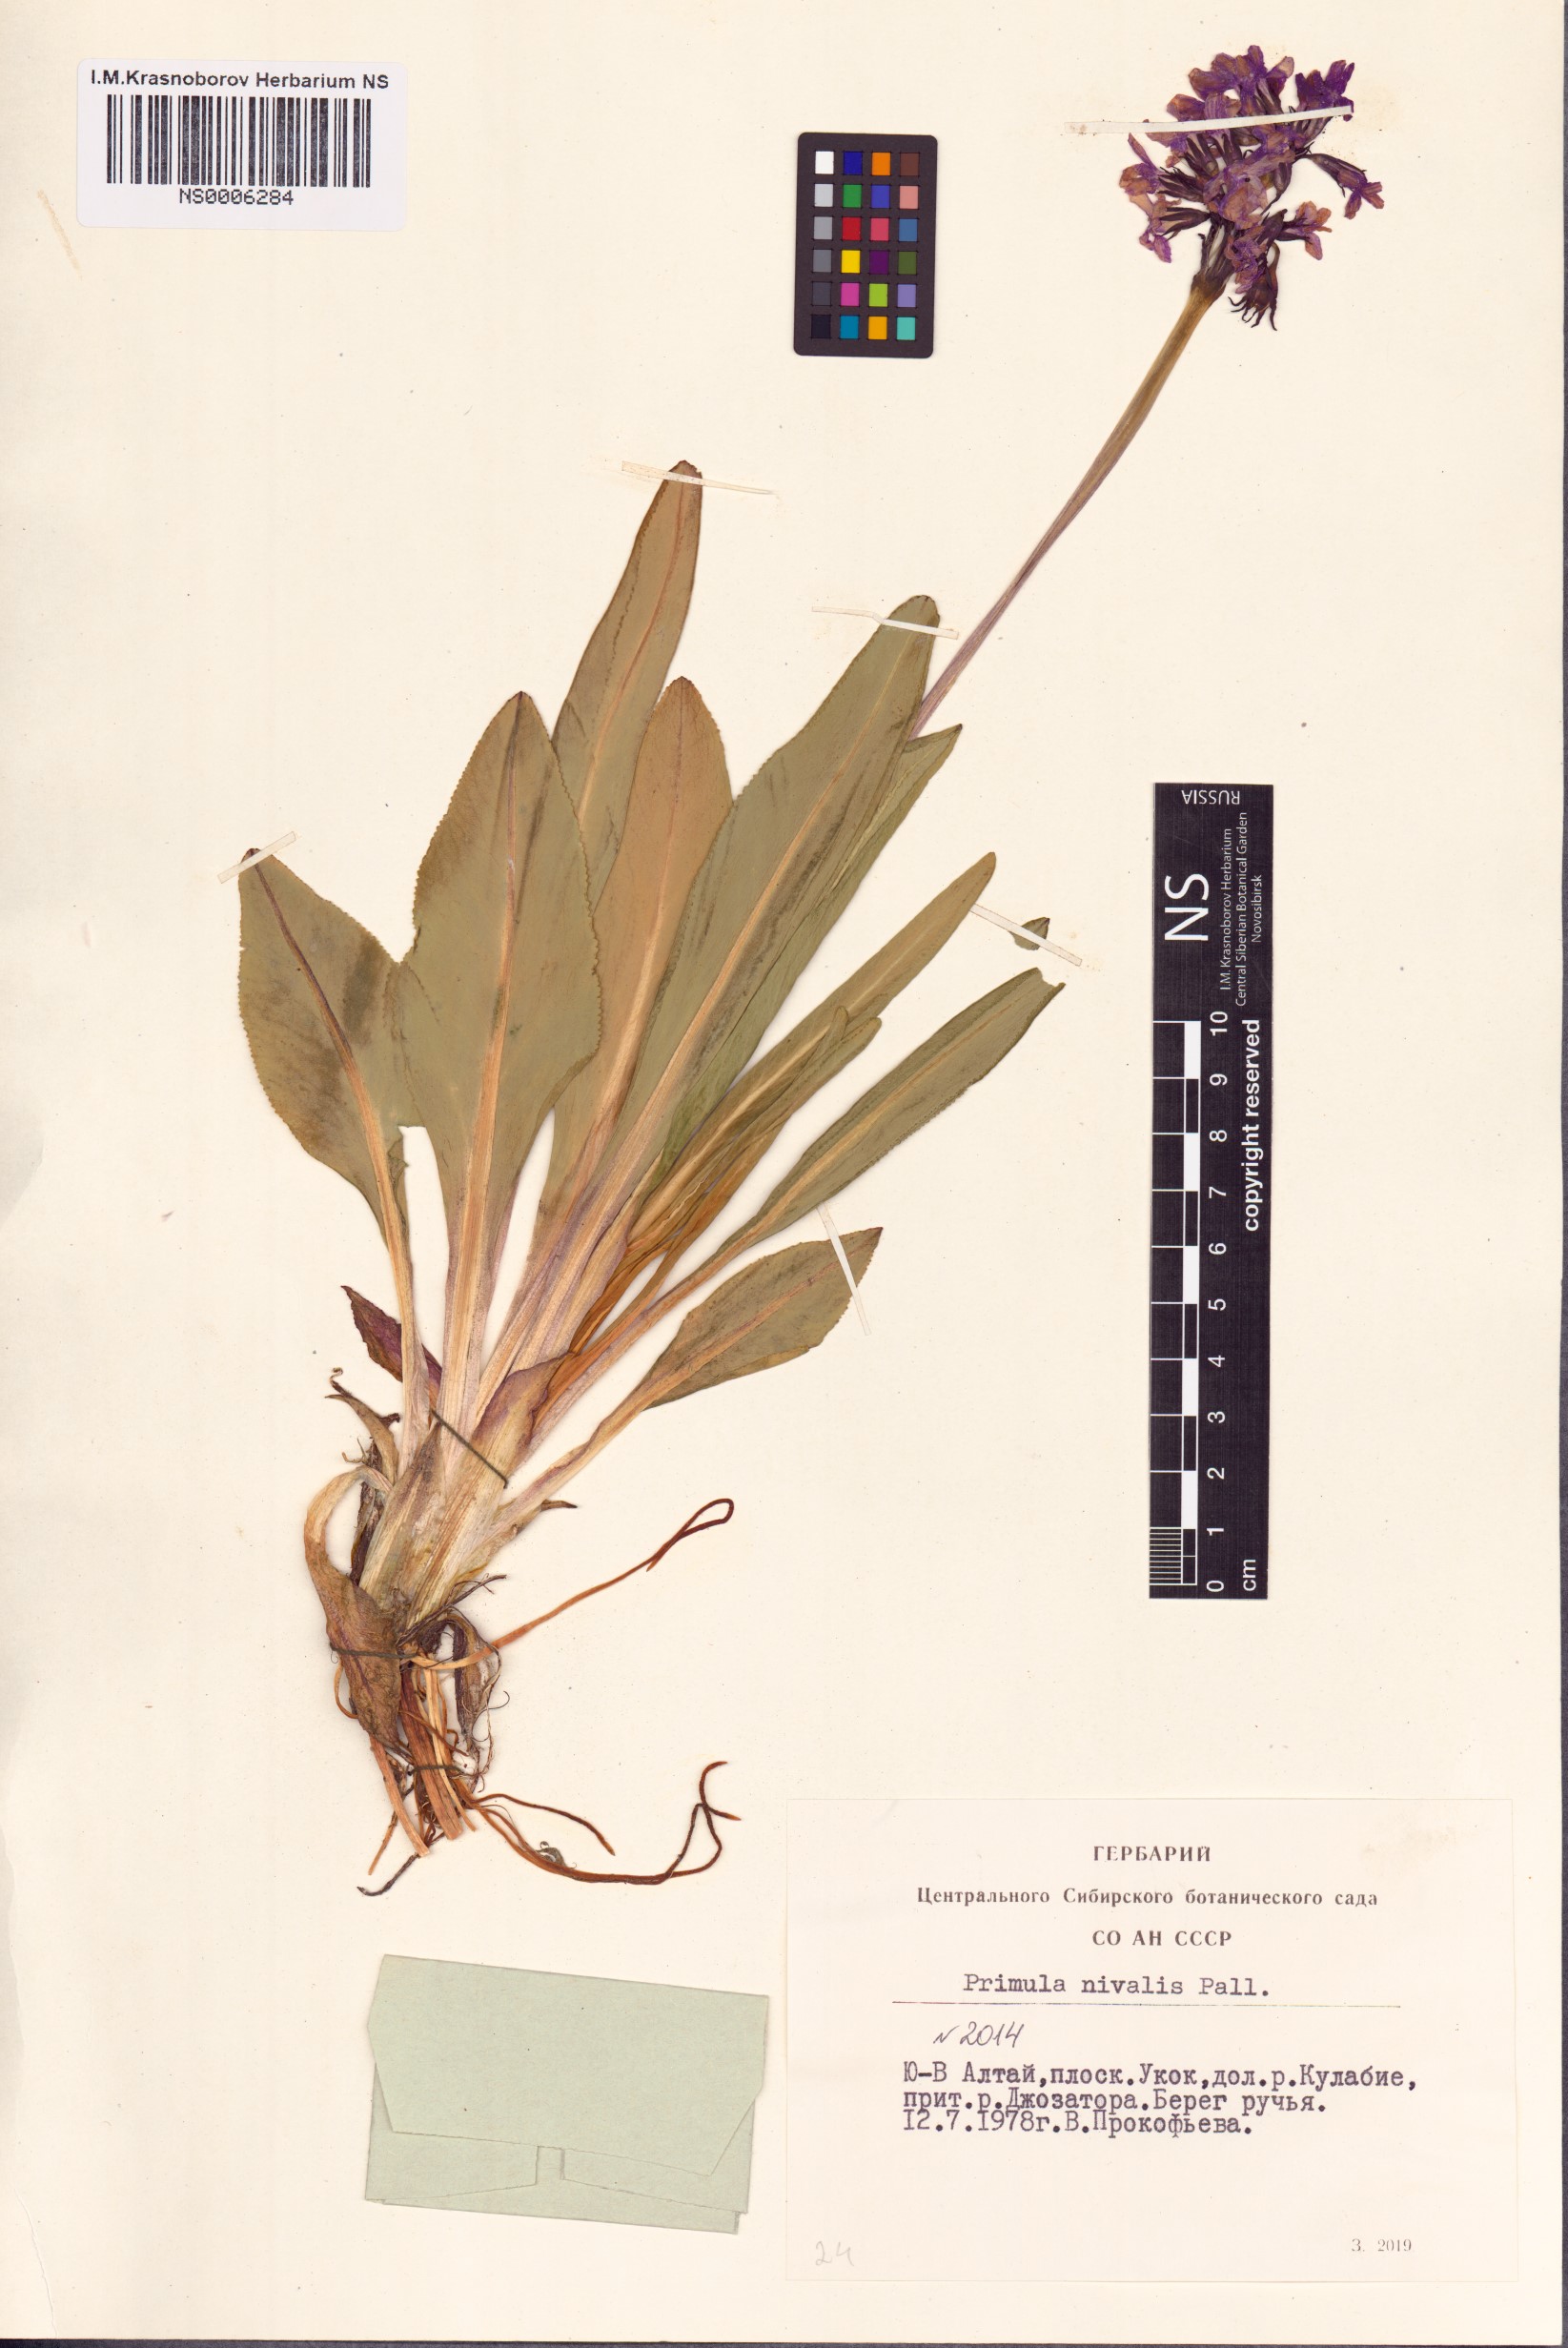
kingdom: Plantae
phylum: Tracheophyta
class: Magnoliopsida
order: Ericales
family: Primulaceae
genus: Primula
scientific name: Primula nivalis
